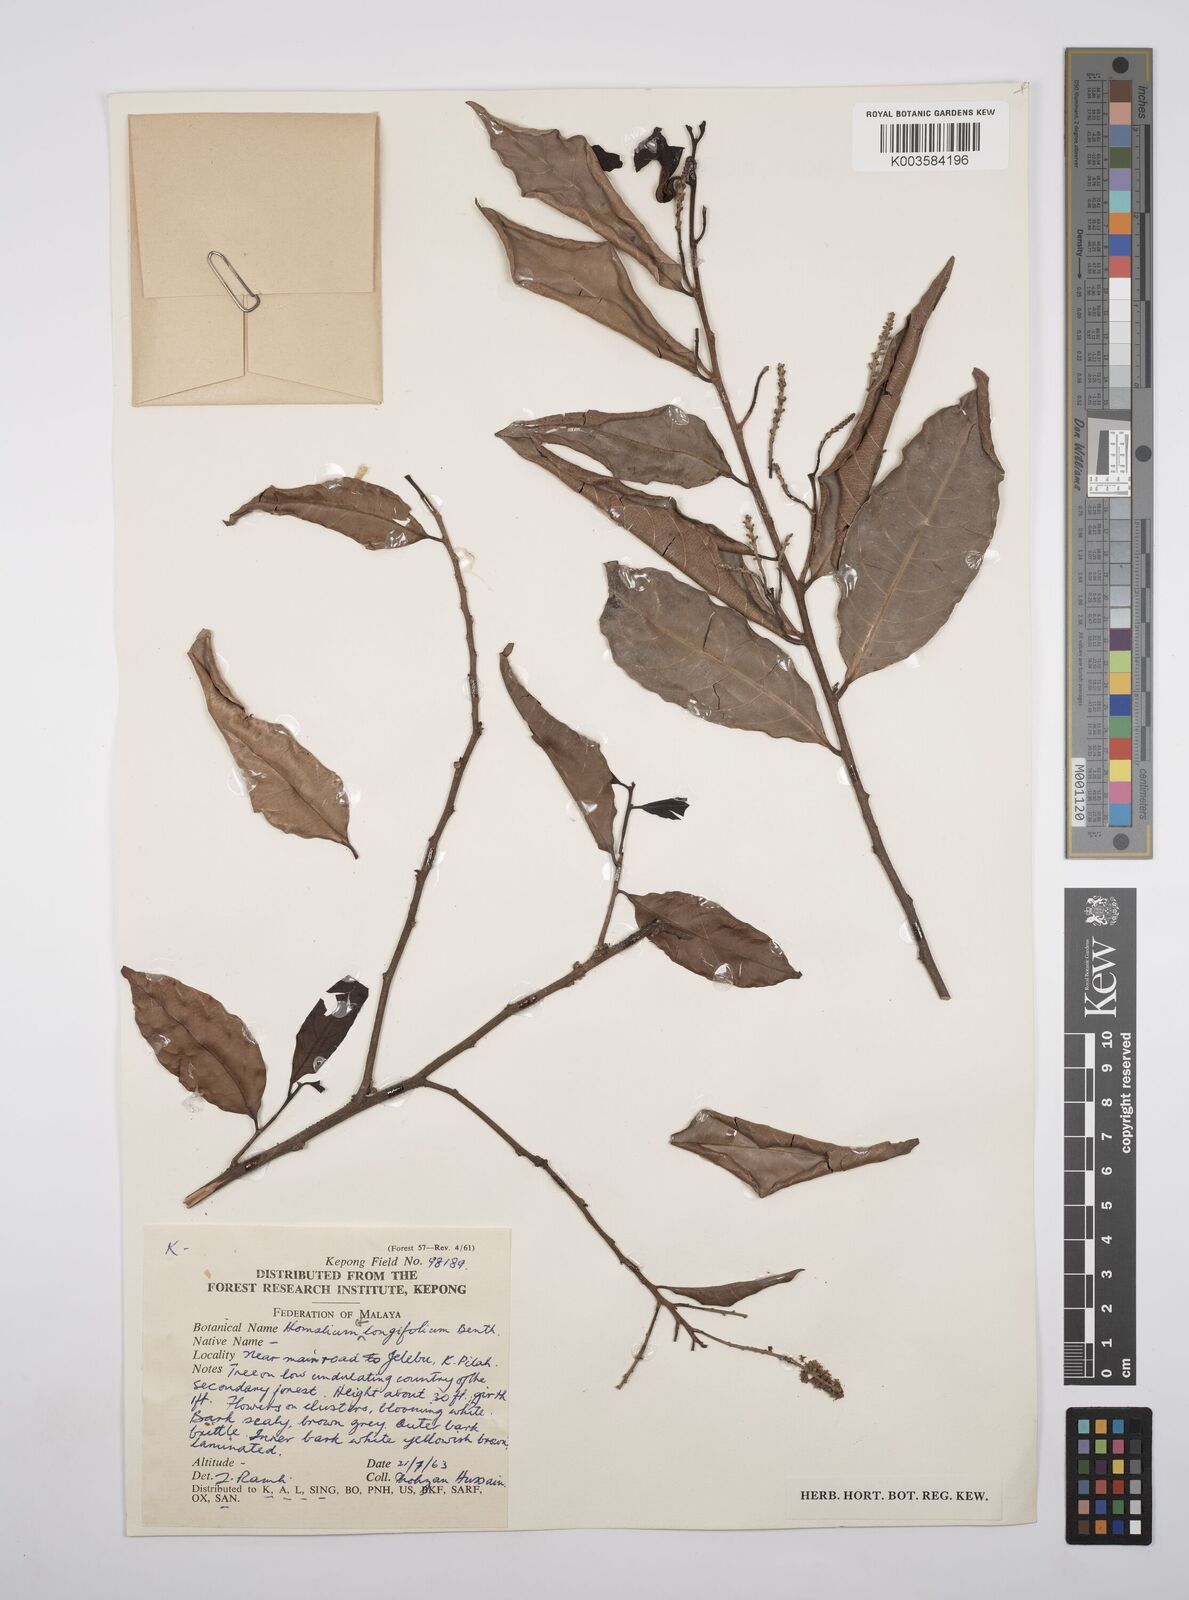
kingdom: Plantae
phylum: Tracheophyta
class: Magnoliopsida
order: Malpighiales
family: Salicaceae
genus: Homalium
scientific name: Homalium longifolium
